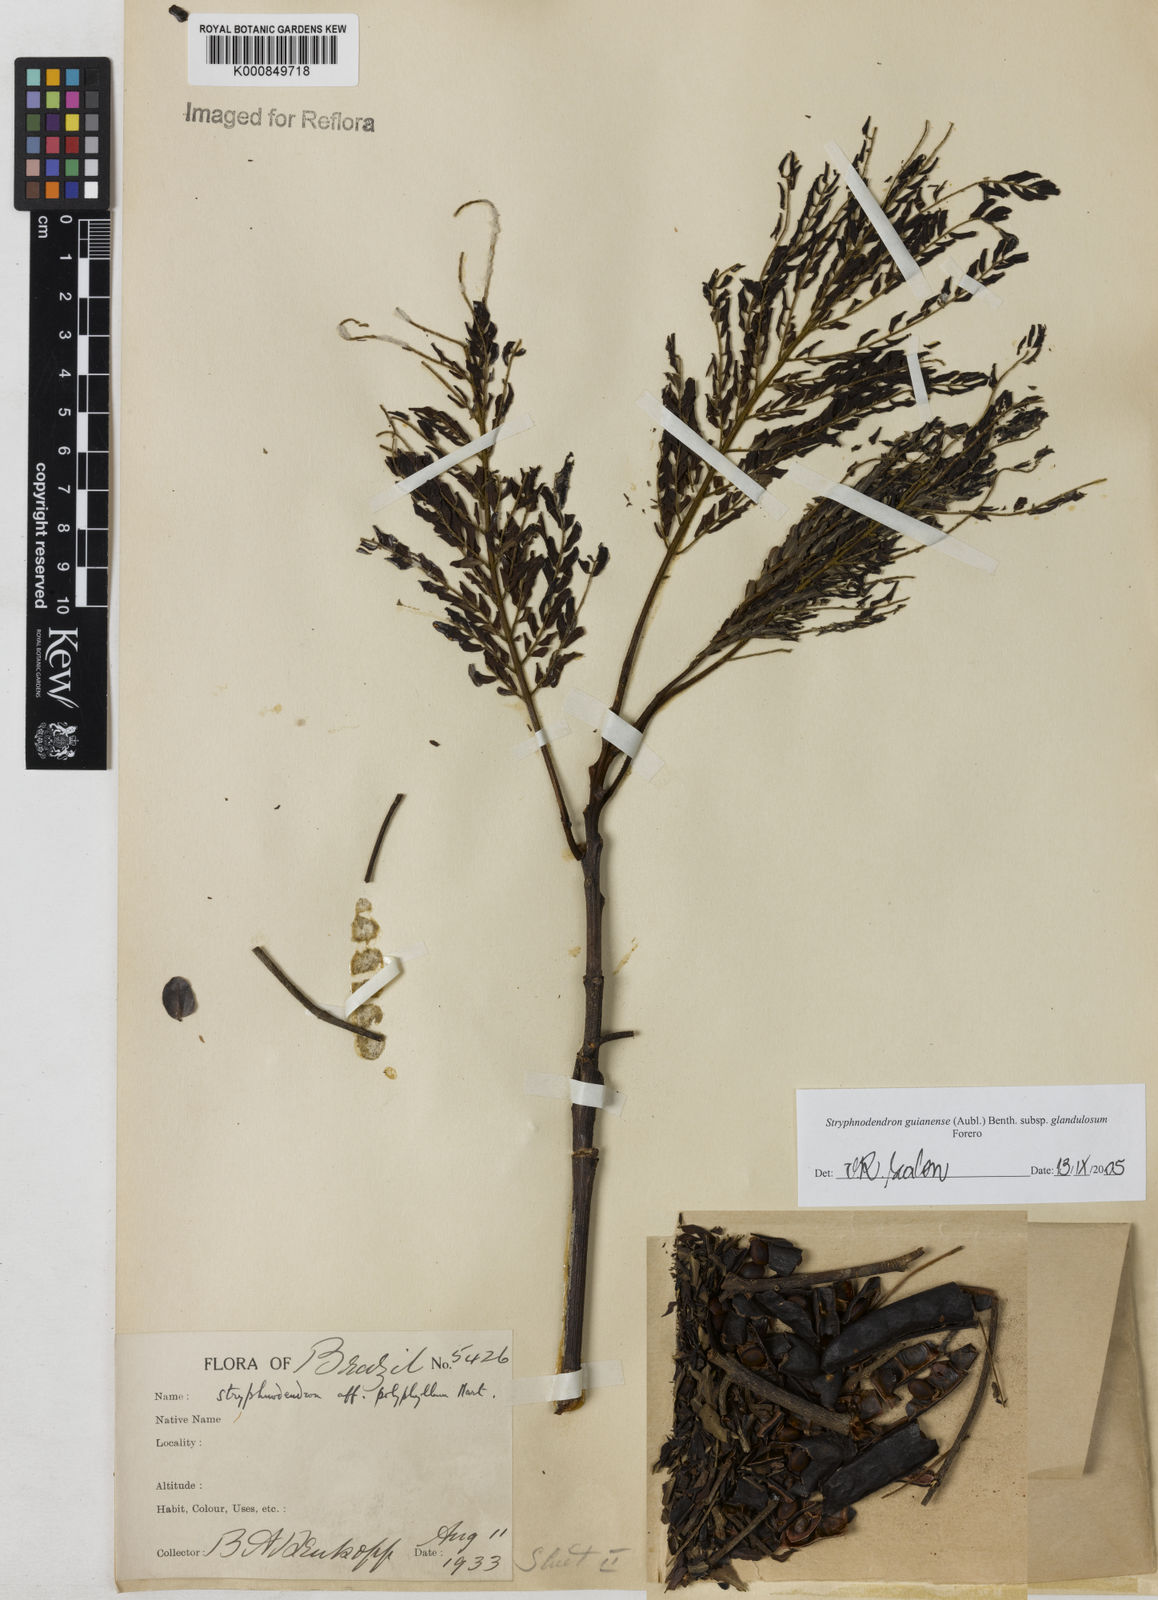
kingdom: Plantae
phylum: Tracheophyta
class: Magnoliopsida
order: Fabales
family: Fabaceae
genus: Stryphnodendron
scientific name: Stryphnodendron guianense
